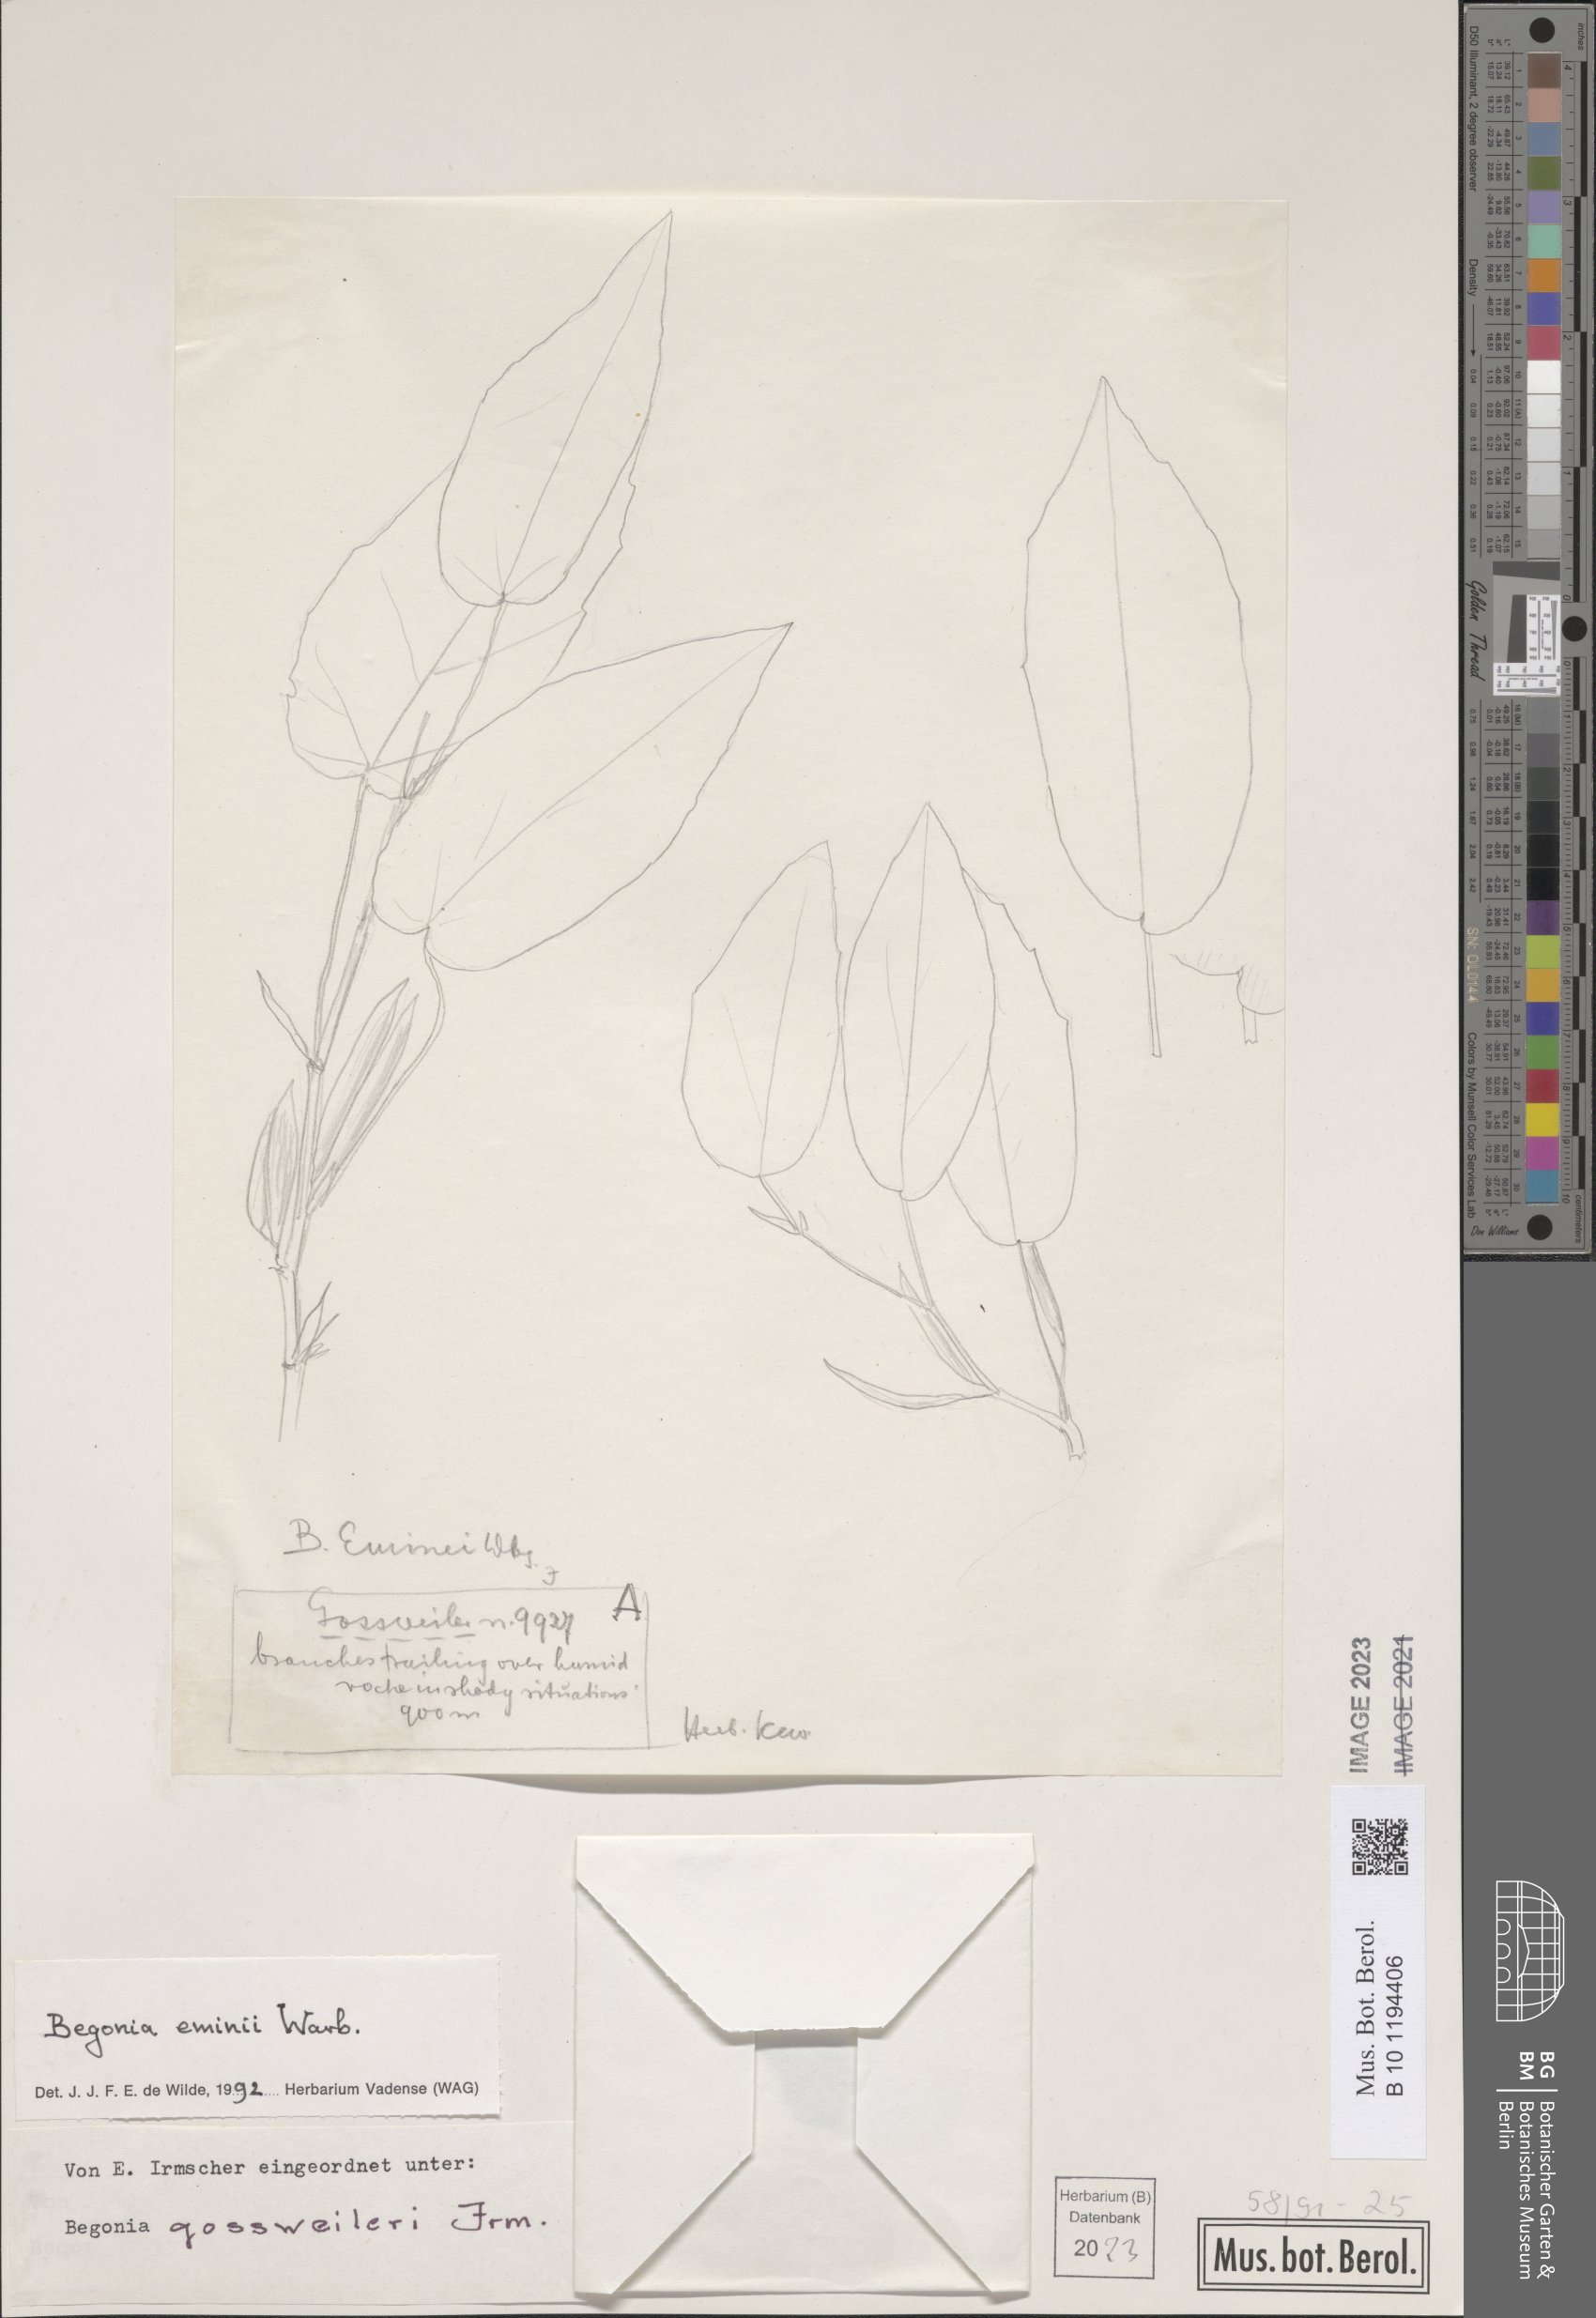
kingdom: Plantae
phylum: Tracheophyta
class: Magnoliopsida
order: Cucurbitales
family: Begoniaceae
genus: Begonia
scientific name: Begonia eminii
